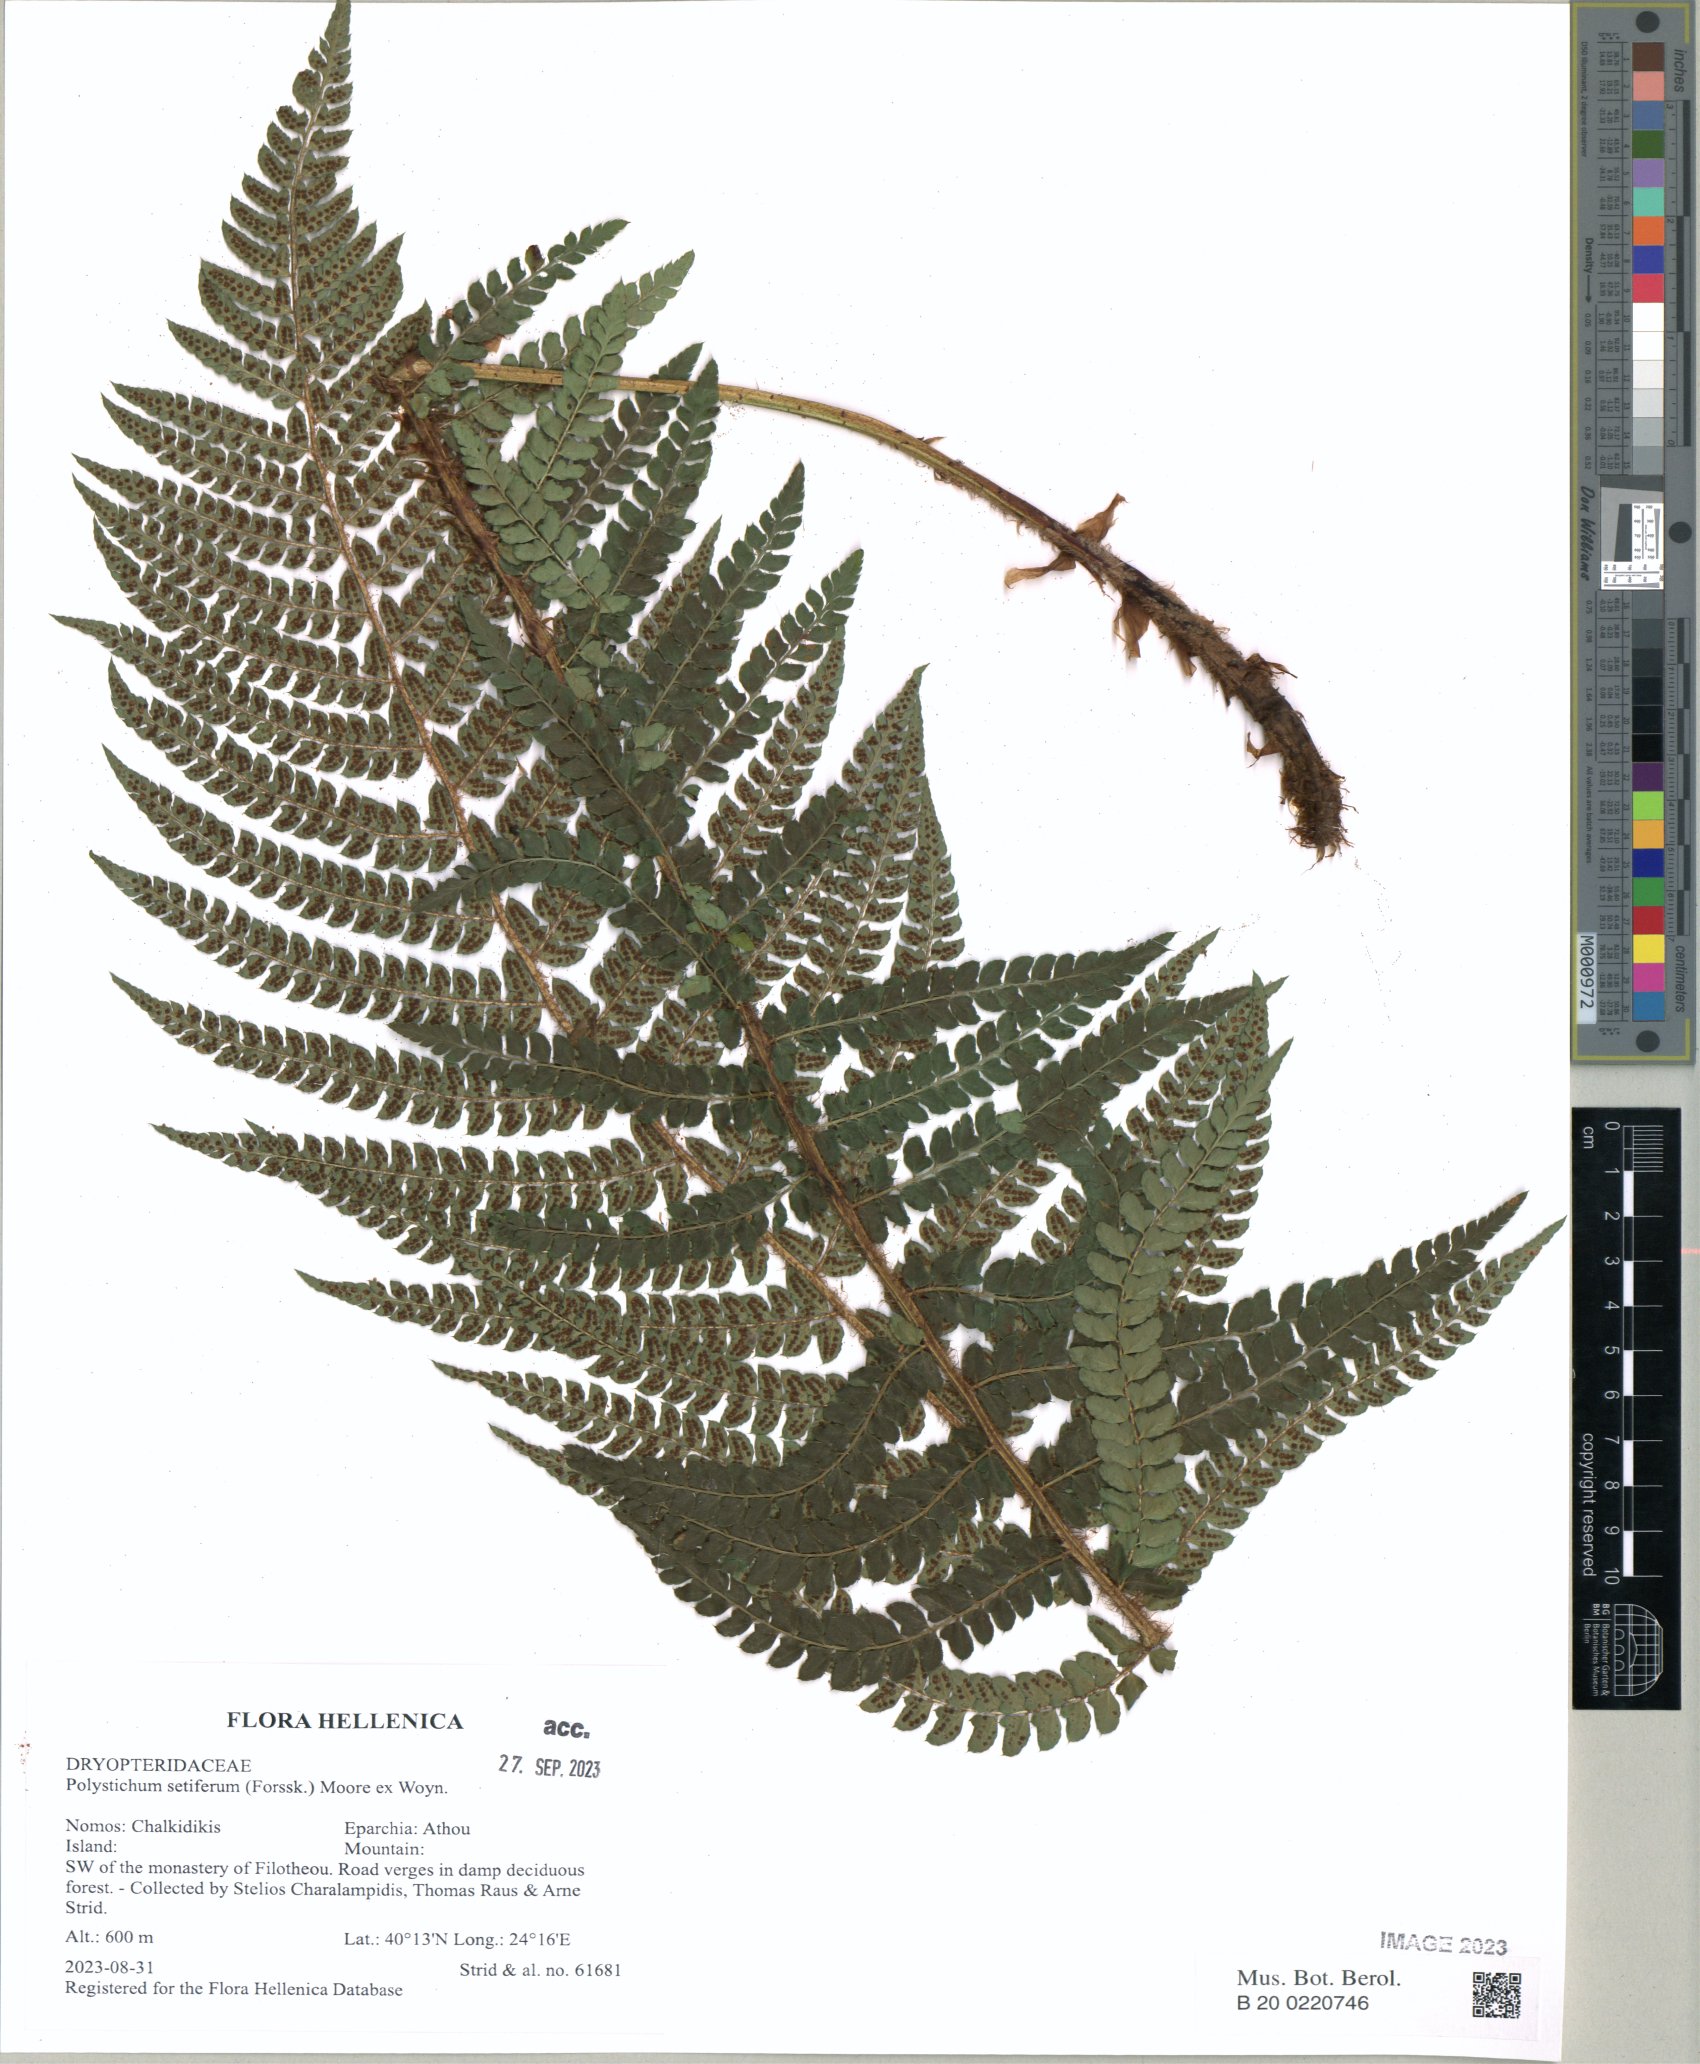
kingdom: Plantae
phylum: Tracheophyta
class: Polypodiopsida
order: Polypodiales
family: Dryopteridaceae
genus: Polystichum
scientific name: Polystichum setiferum
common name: Soft shield-fern
